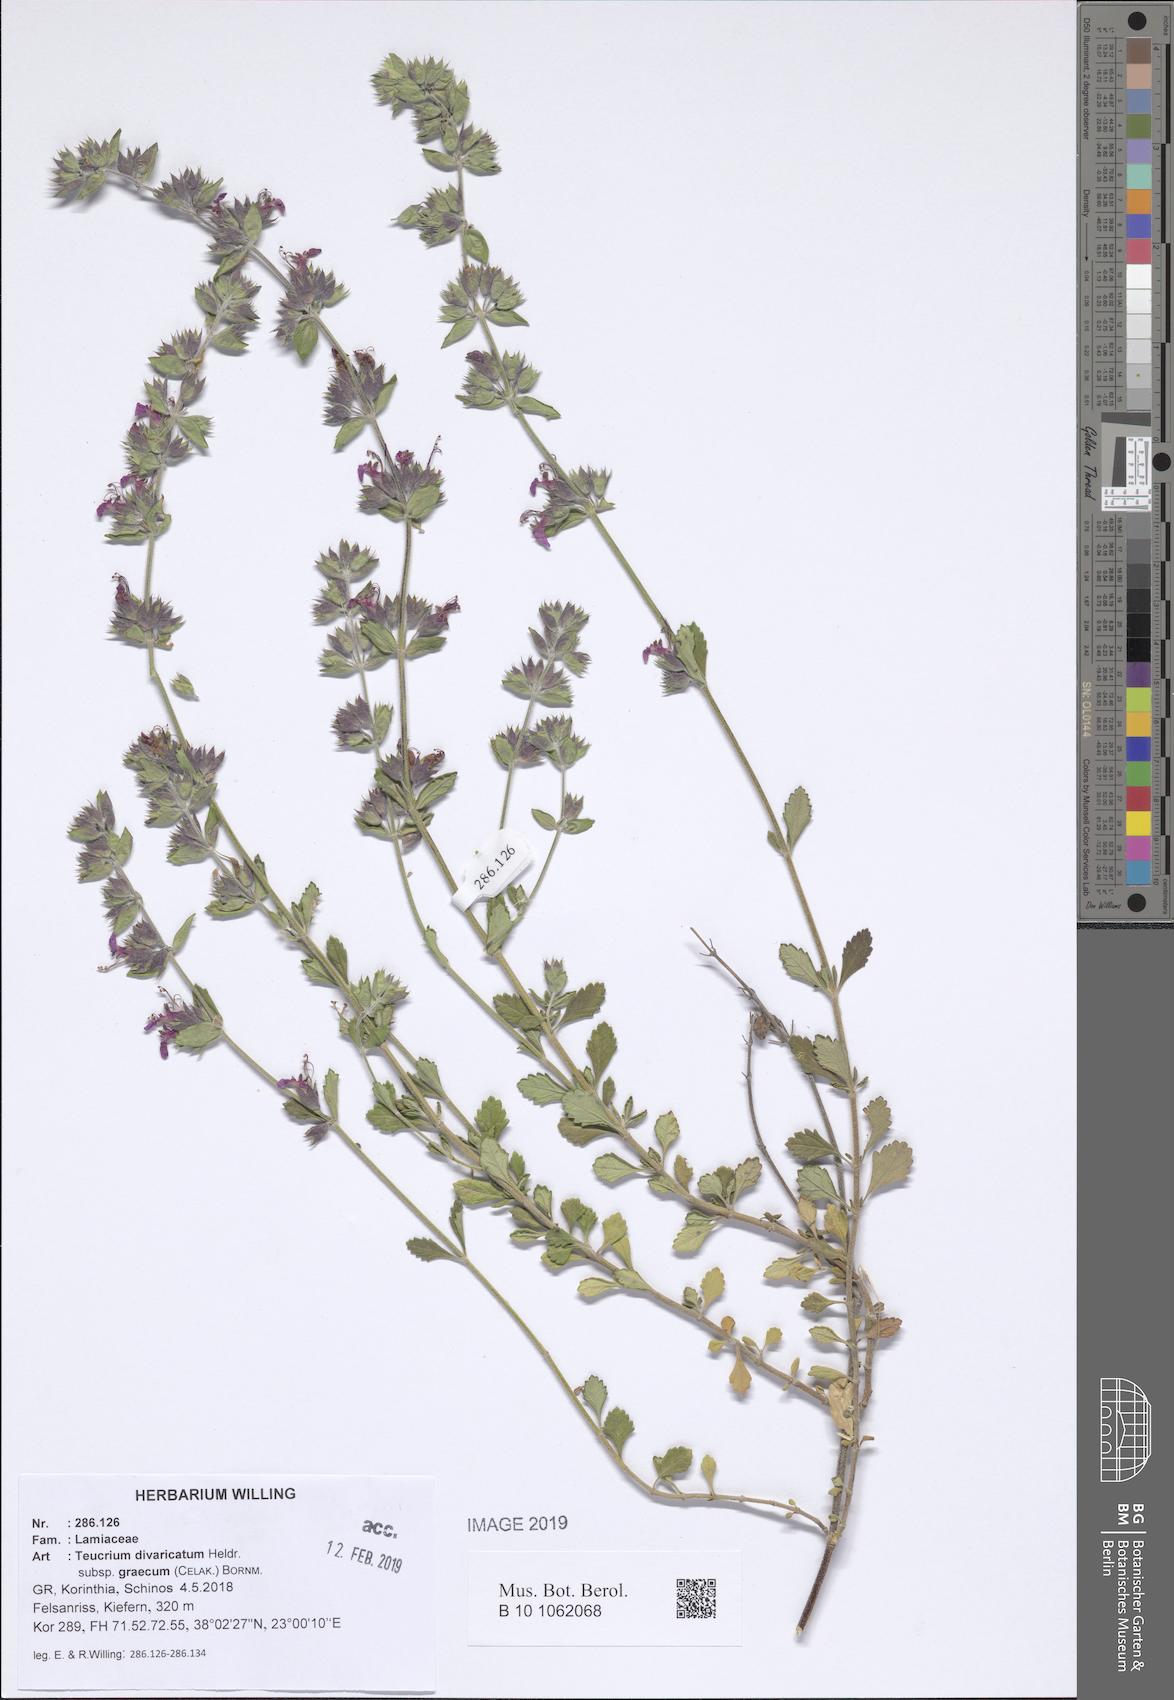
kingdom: Plantae
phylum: Tracheophyta
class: Magnoliopsida
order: Lamiales
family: Lamiaceae
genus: Teucrium
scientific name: Teucrium divaricatum
